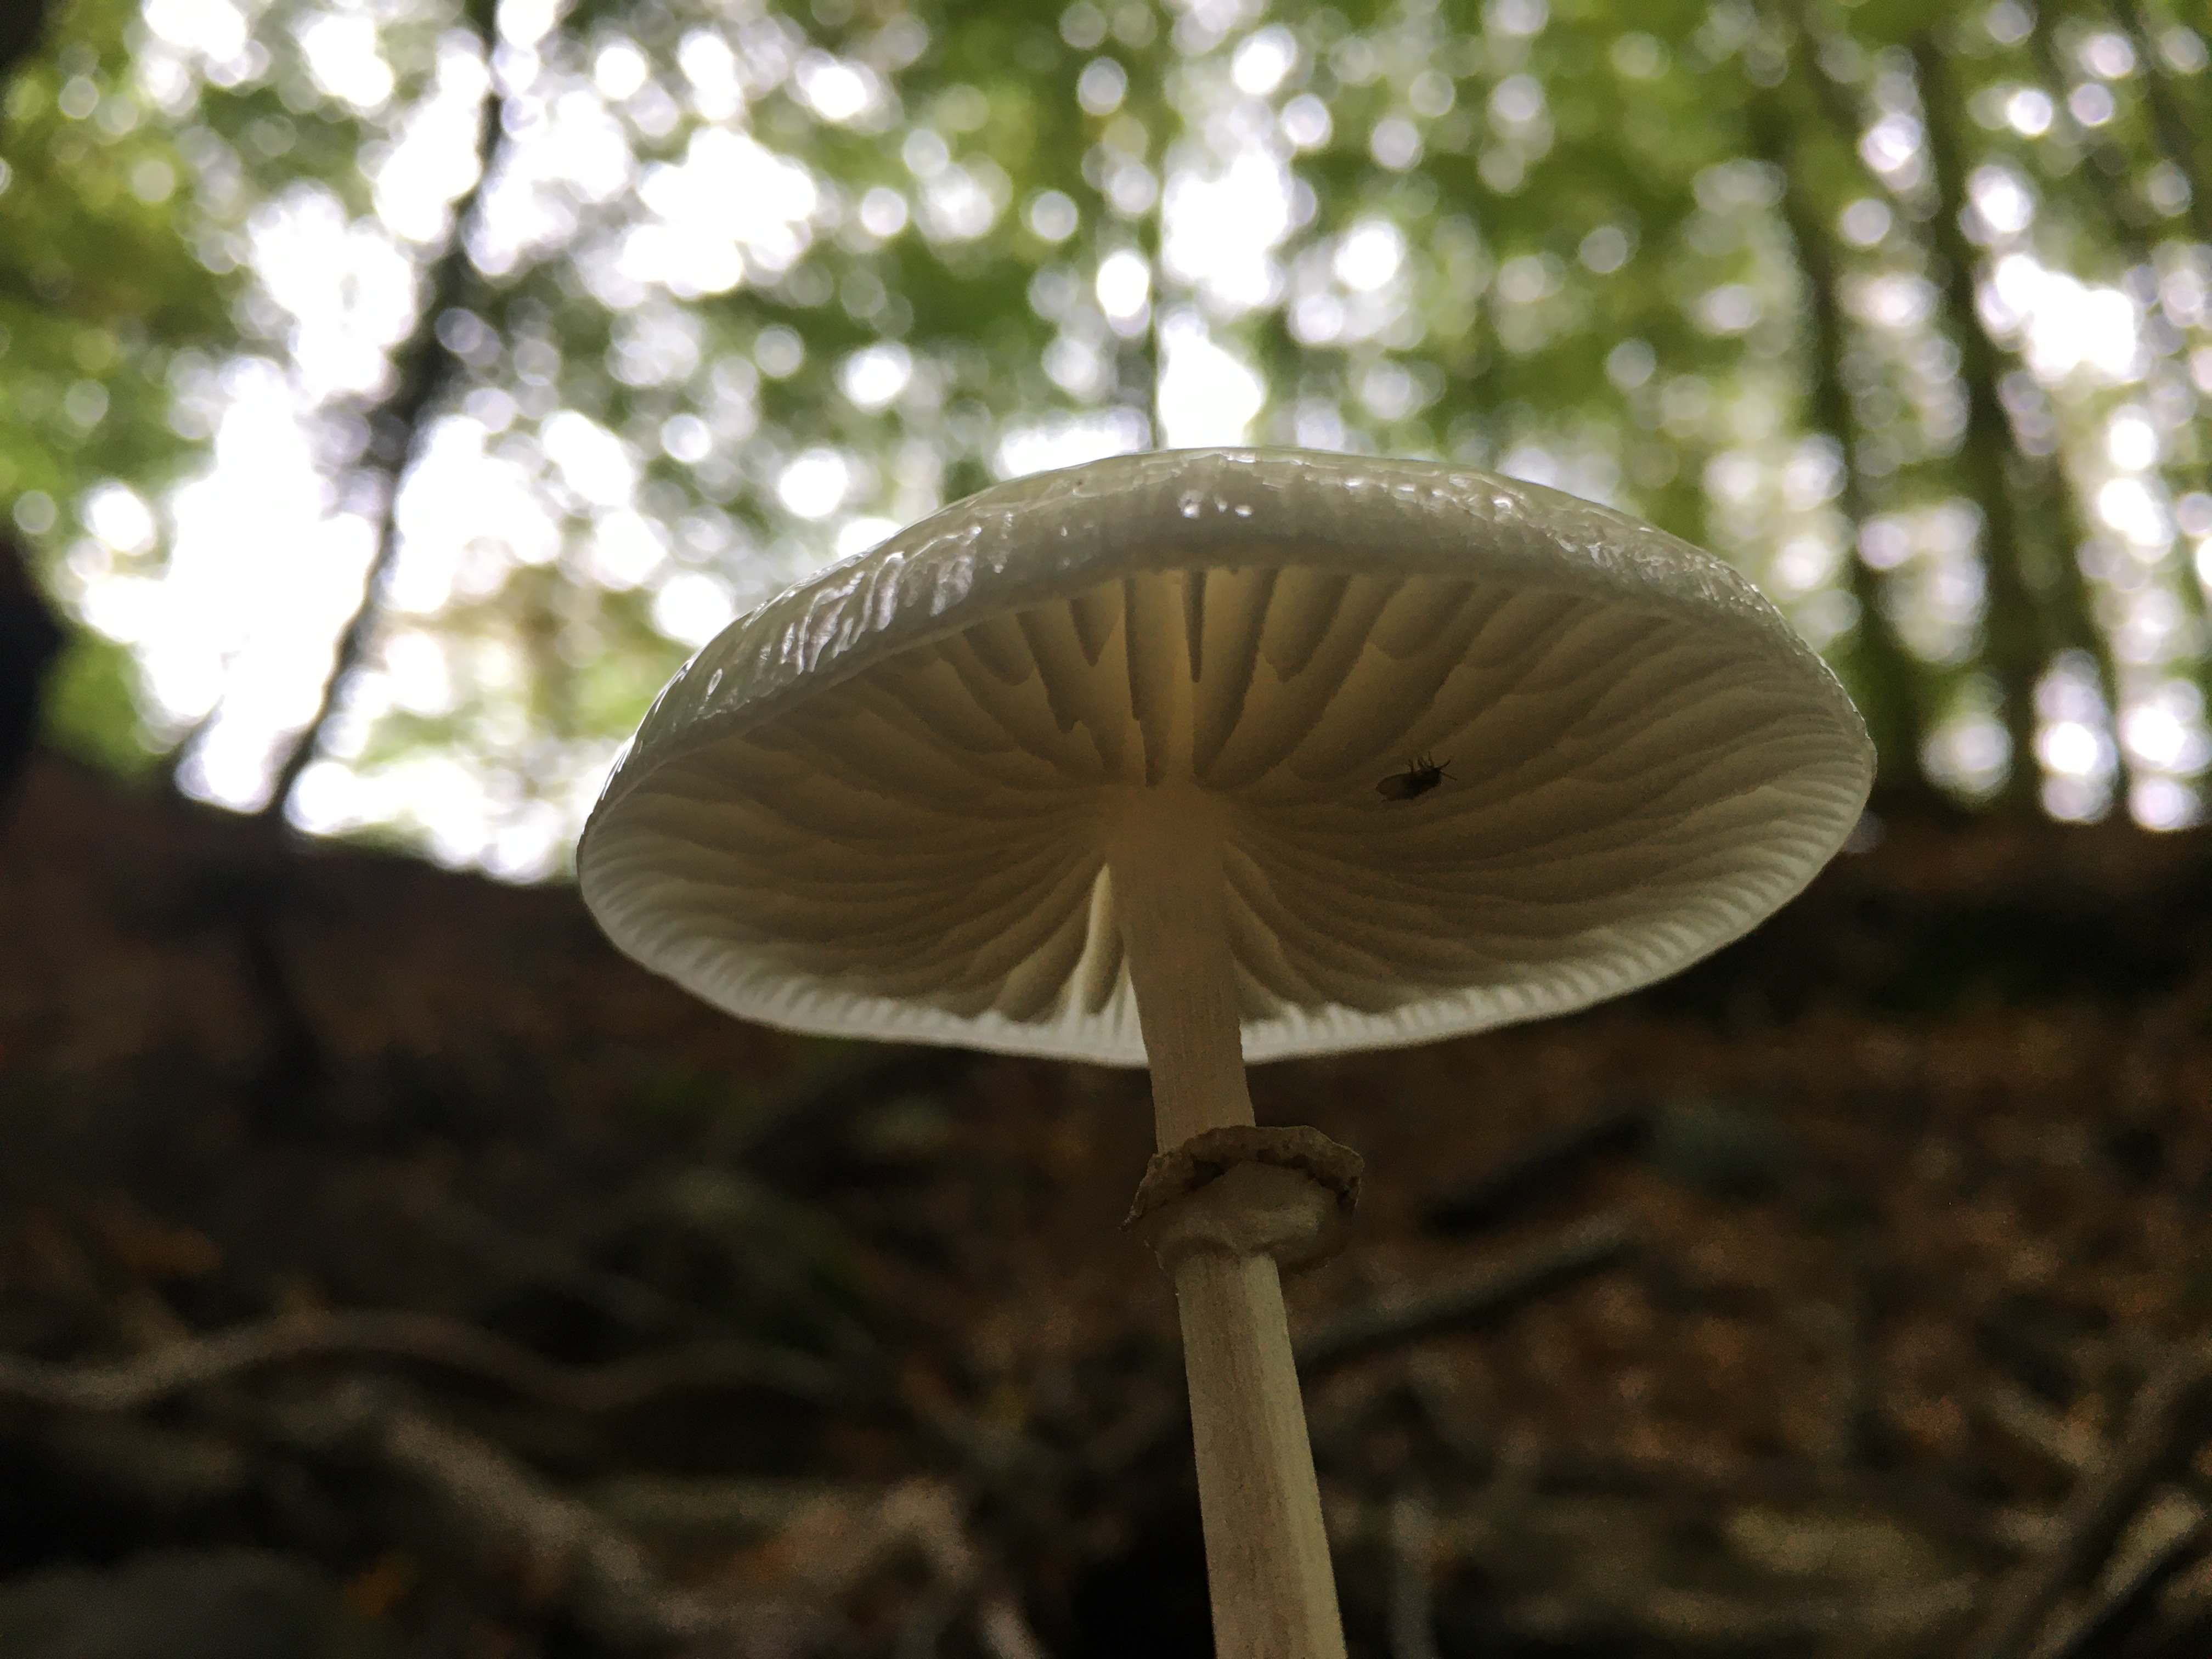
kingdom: Fungi
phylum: Basidiomycota
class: Agaricomycetes
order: Agaricales
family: Physalacriaceae
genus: Mucidula
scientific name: Mucidula mucida
